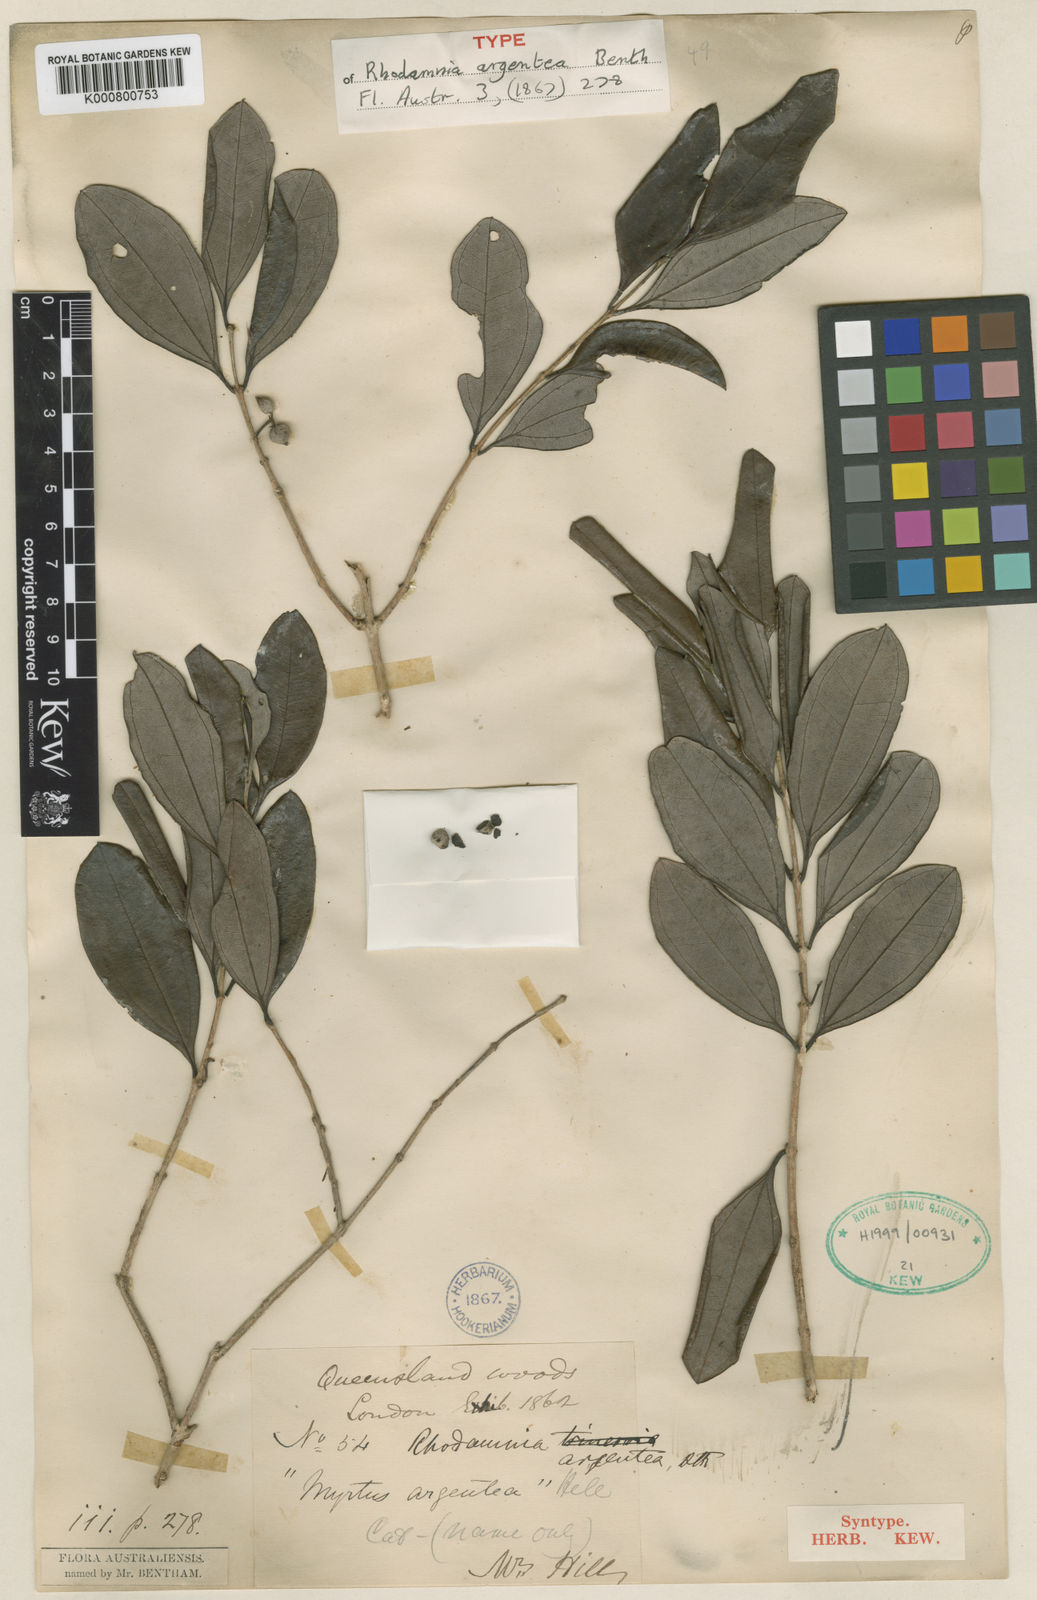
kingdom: Plantae
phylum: Tracheophyta
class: Magnoliopsida
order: Myrtales
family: Myrtaceae
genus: Rhodamnia
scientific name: Rhodamnia argentea
